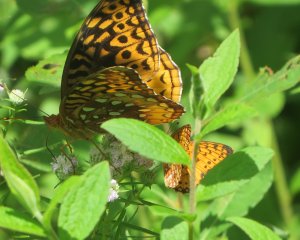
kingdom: Animalia
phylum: Arthropoda
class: Insecta
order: Lepidoptera
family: Nymphalidae
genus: Speyeria
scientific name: Speyeria cybele
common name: Great Spangled Fritillary
